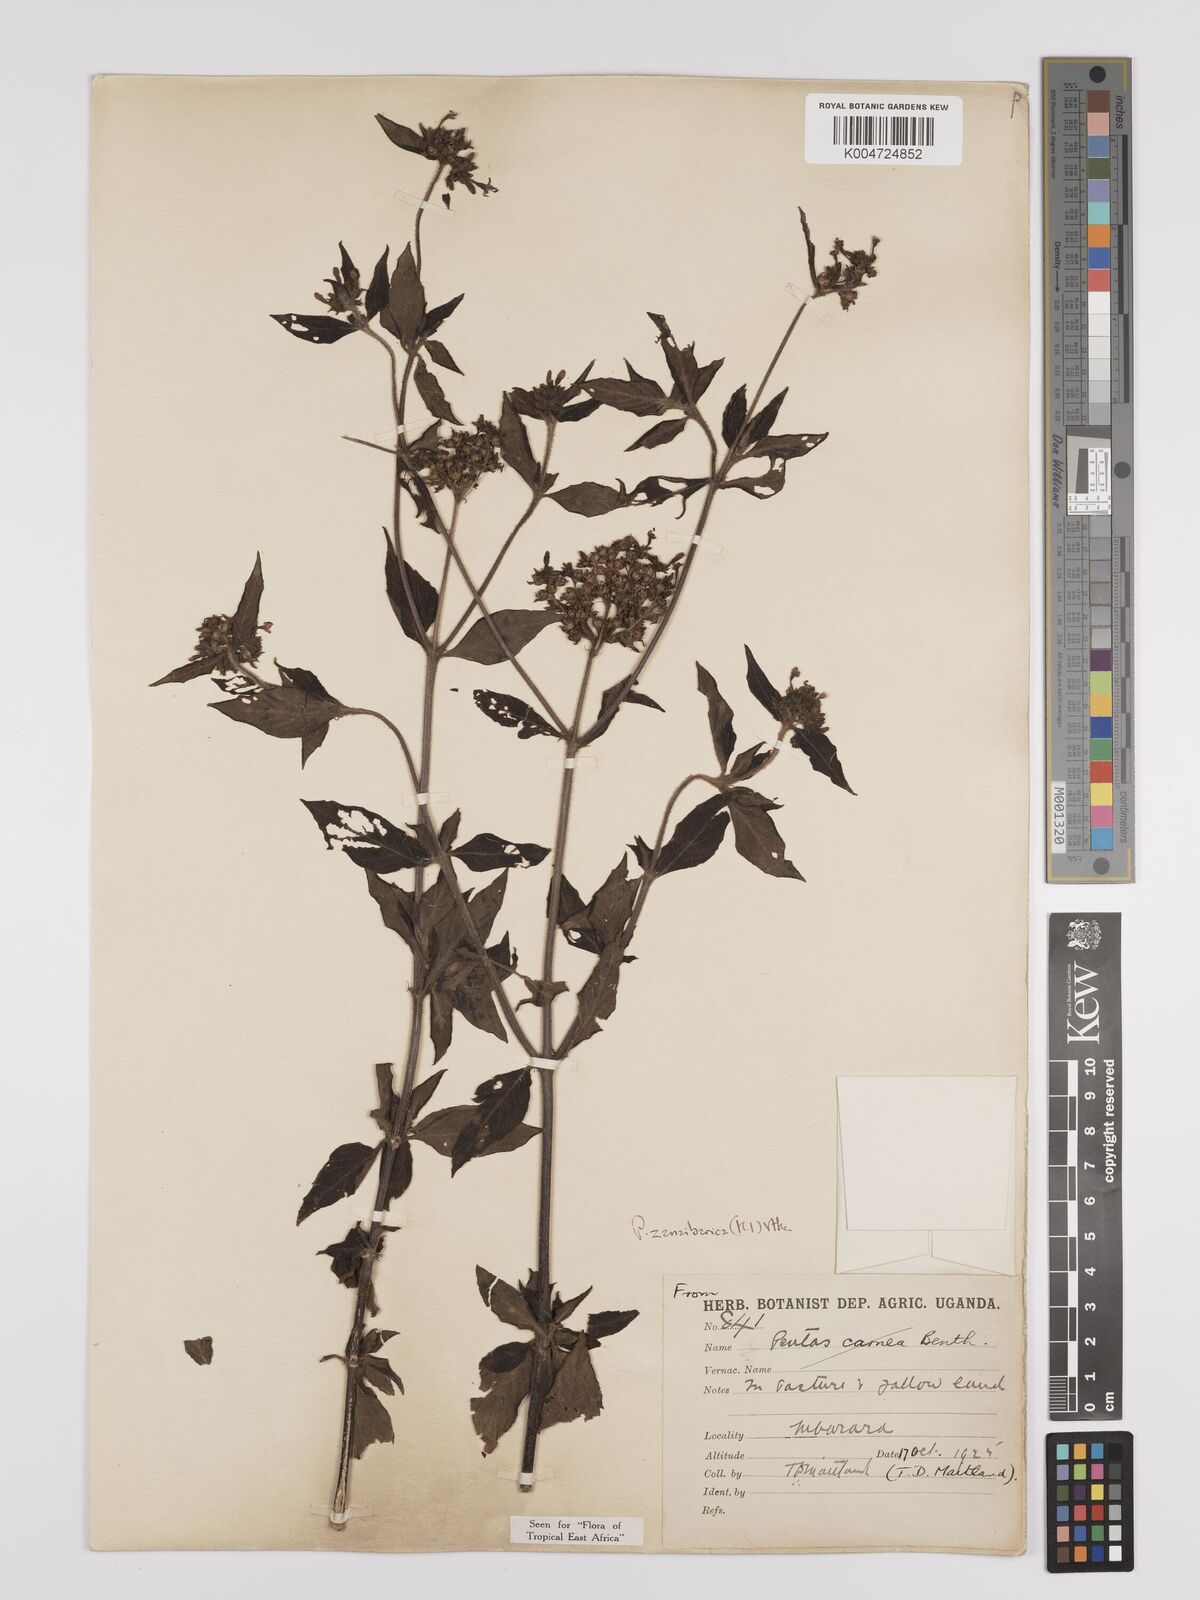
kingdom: Plantae
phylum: Tracheophyta
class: Magnoliopsida
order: Gentianales
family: Rubiaceae
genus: Pentas
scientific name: Pentas zanzibarica
